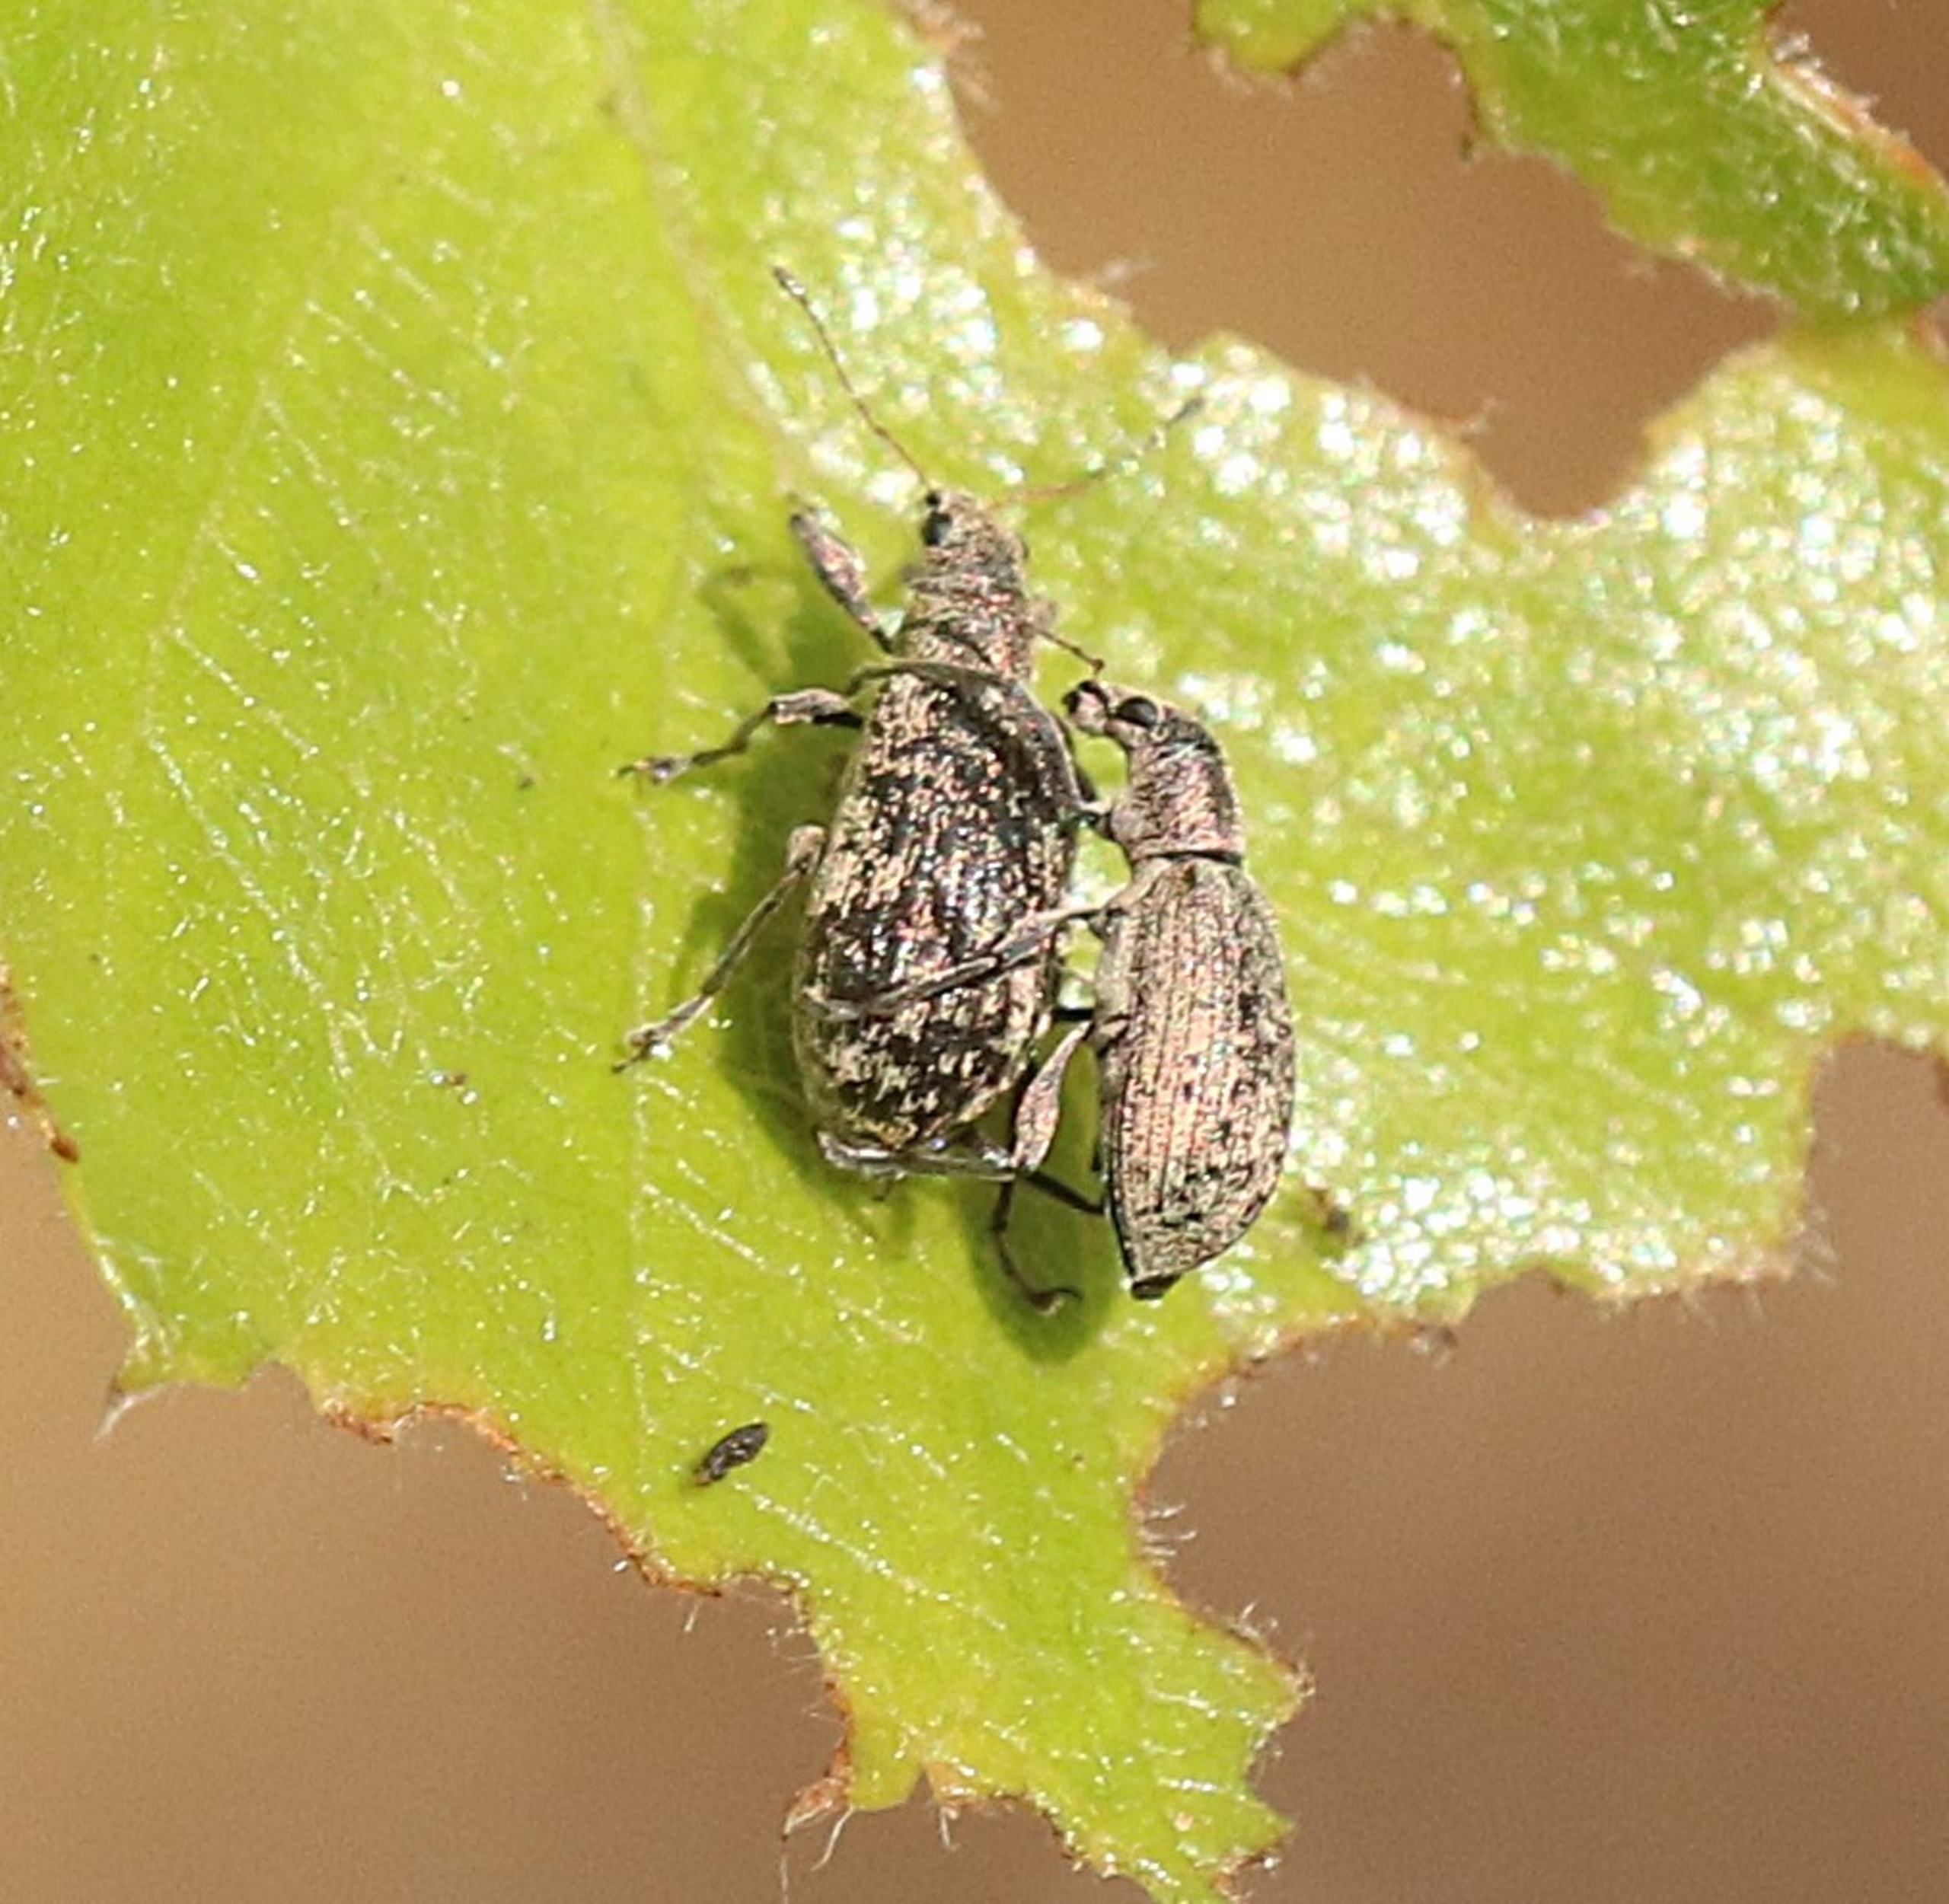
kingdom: Animalia
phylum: Arthropoda
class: Insecta
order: Coleoptera
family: Curculionidae
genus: Polydrusus
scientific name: Polydrusus cervinus
